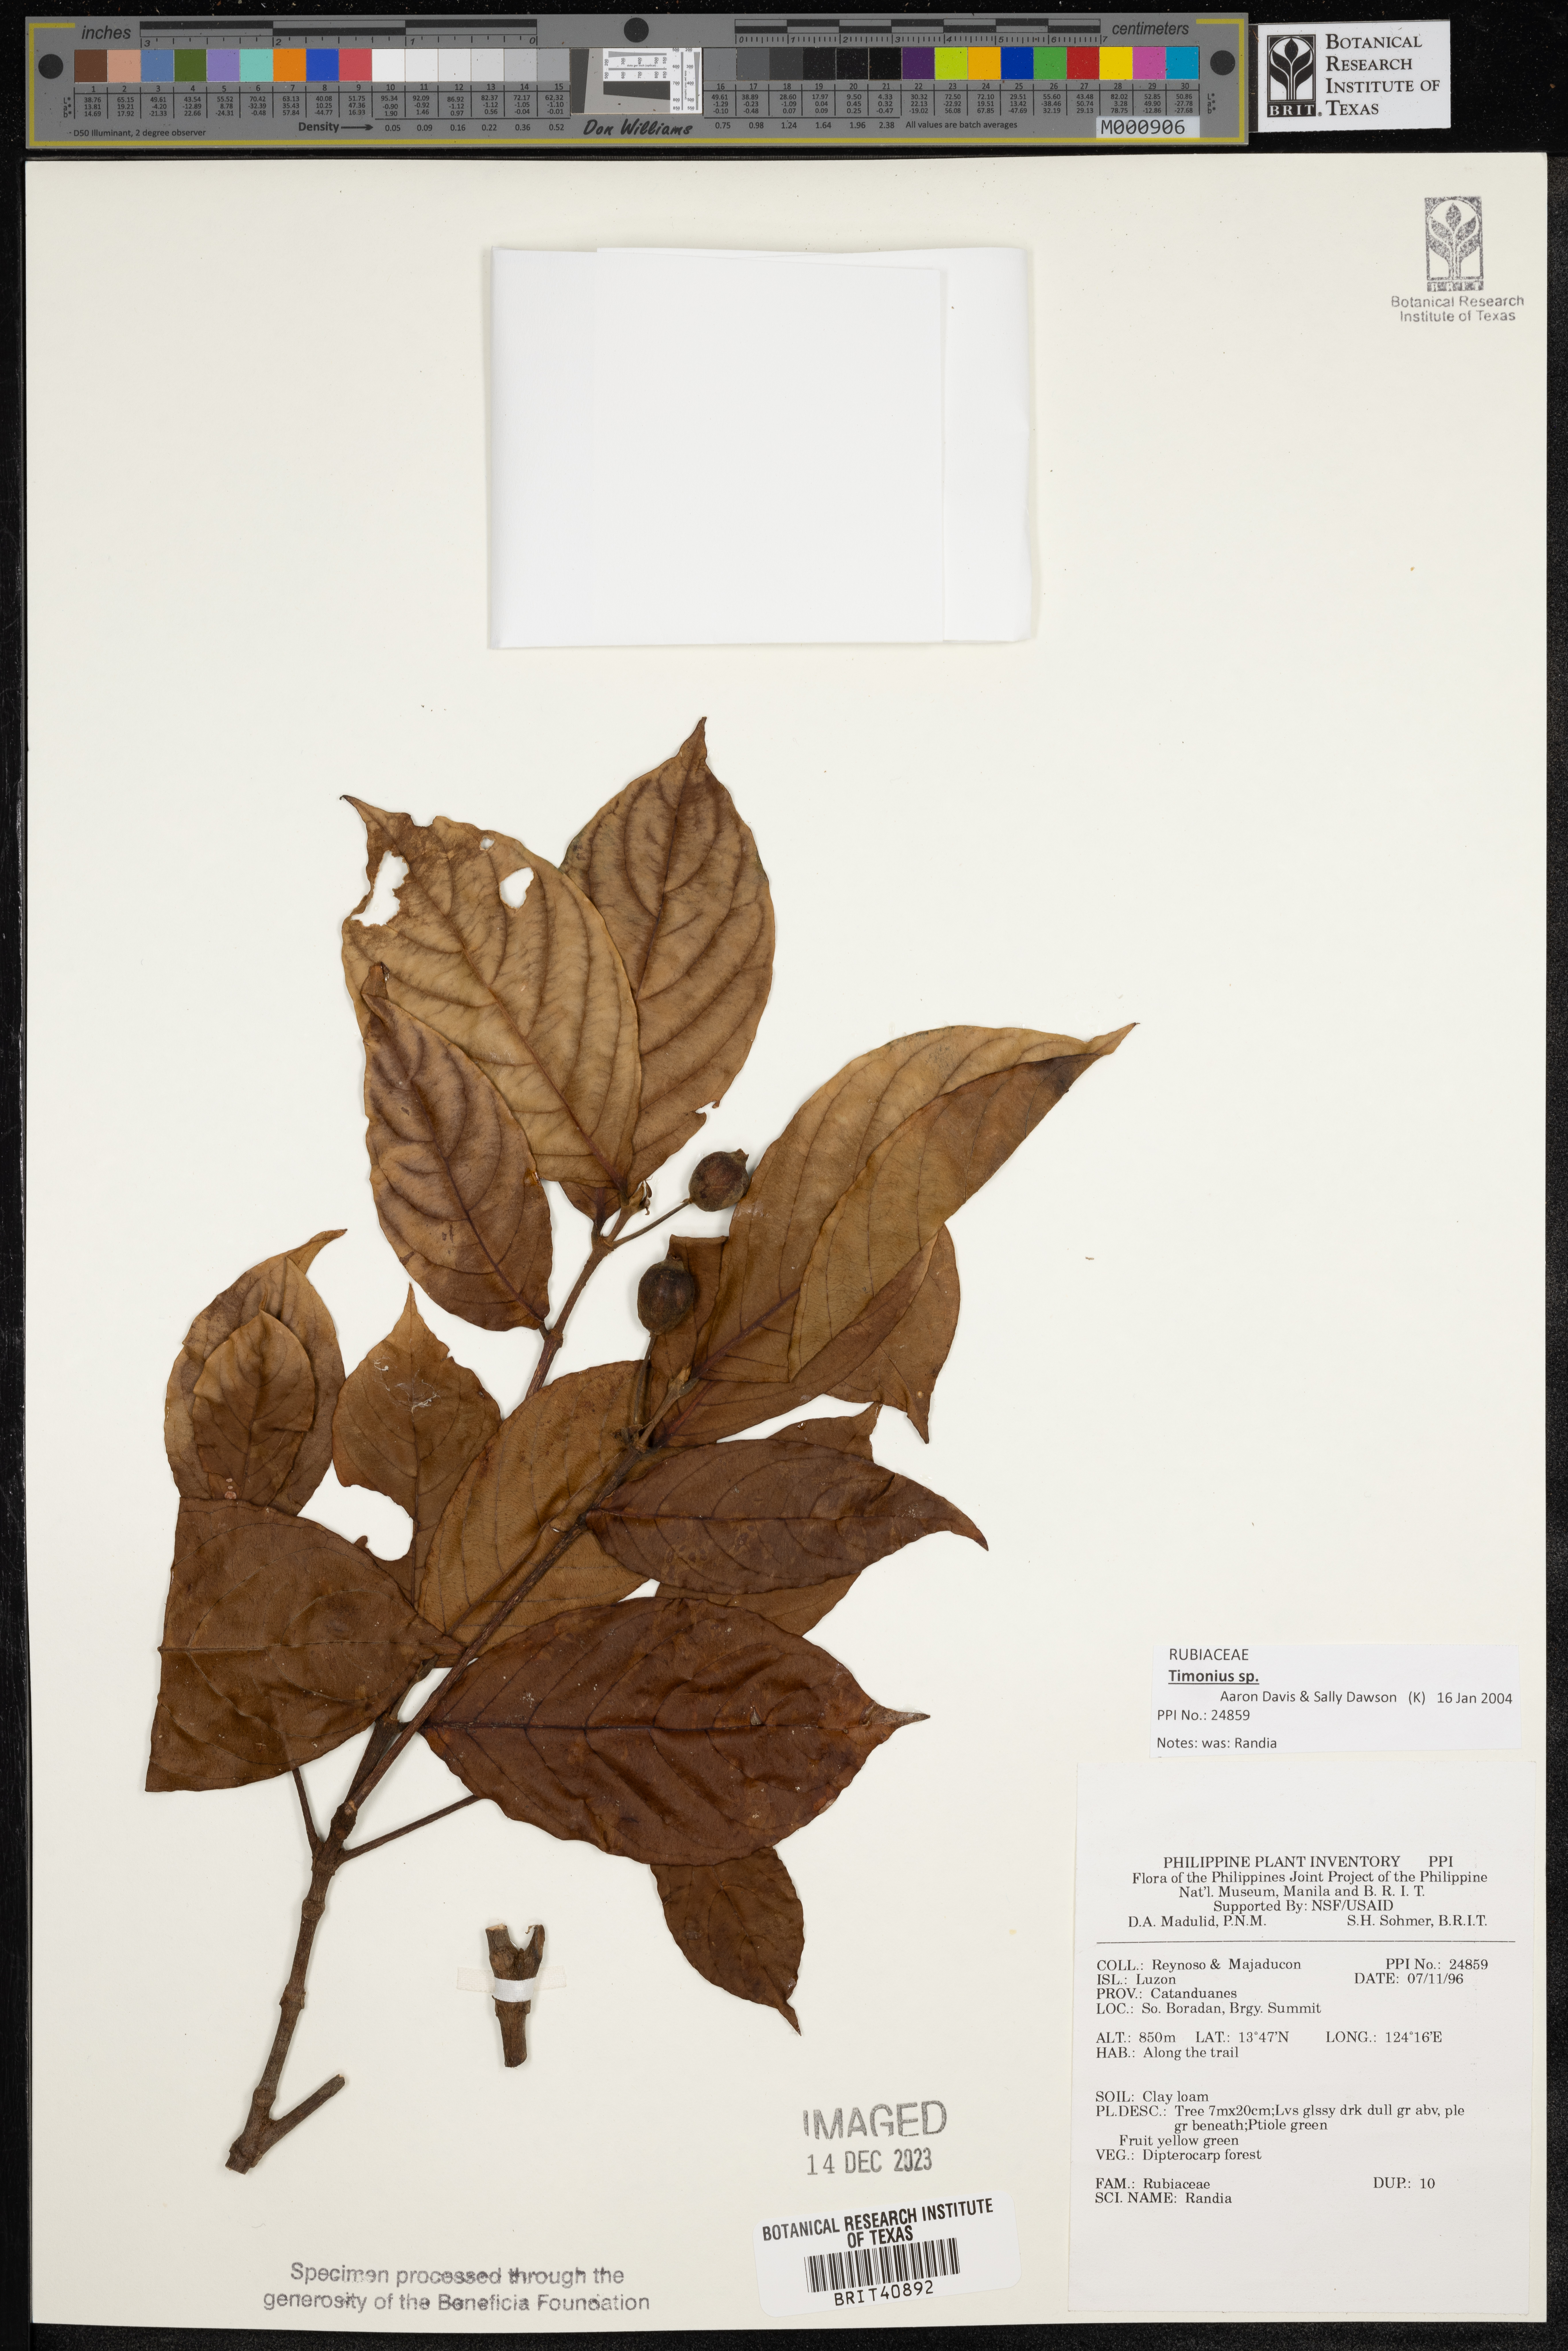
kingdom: Plantae
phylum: Tracheophyta
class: Magnoliopsida
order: Gentianales
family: Rubiaceae
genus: Randia
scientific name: Randia
